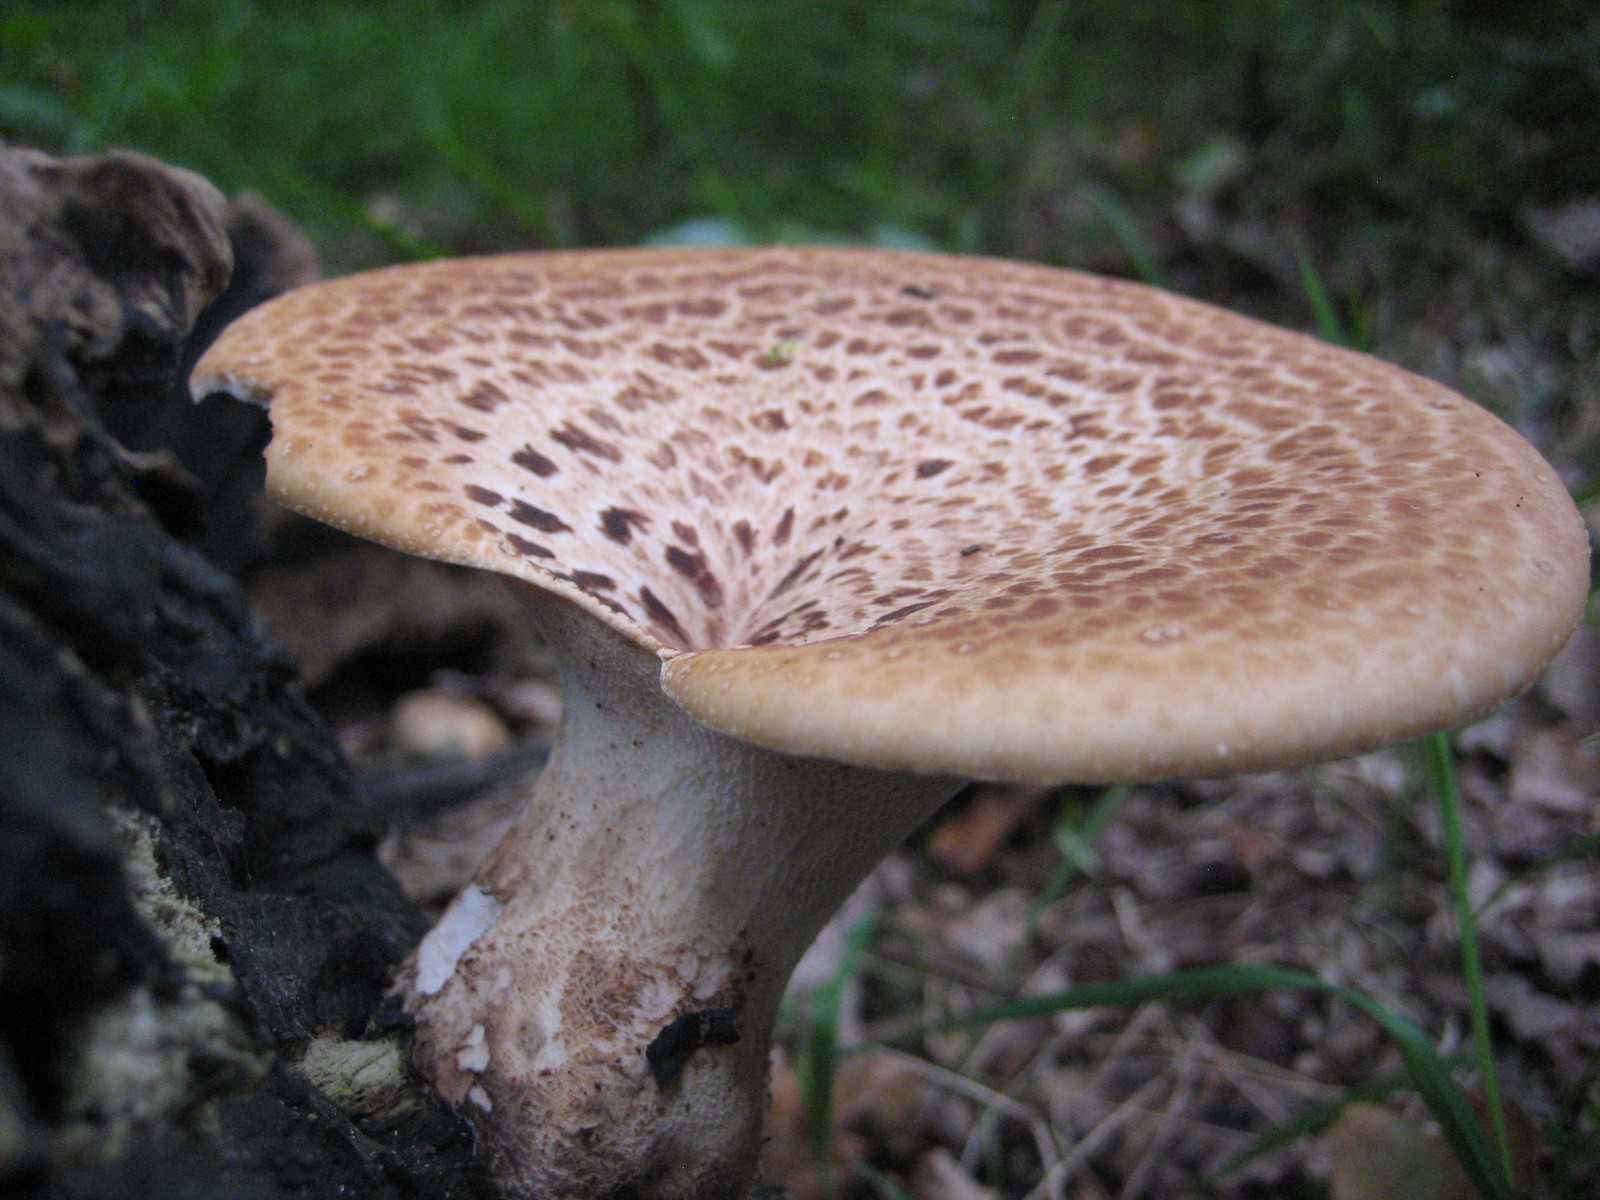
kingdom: Fungi
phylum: Basidiomycota
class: Agaricomycetes
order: Polyporales
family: Polyporaceae
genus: Cerioporus
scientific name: Cerioporus squamosus
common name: skællet stilkporesvamp
